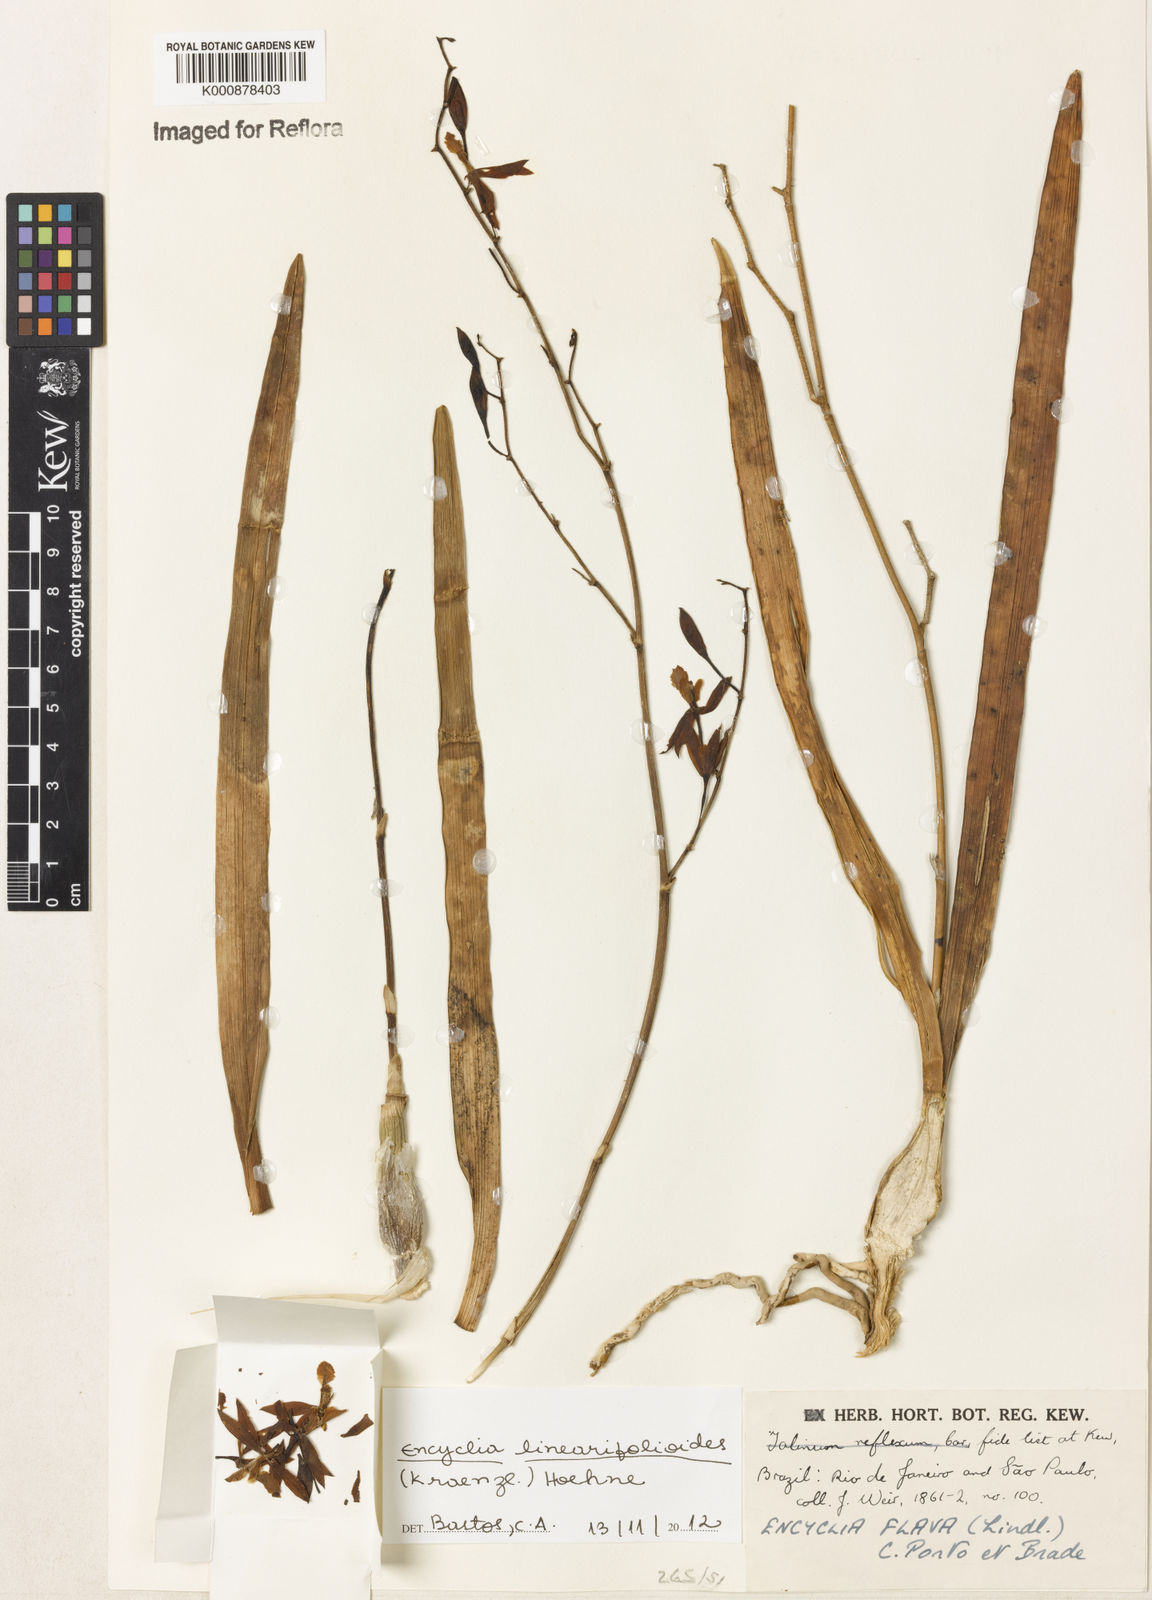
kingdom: Plantae
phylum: Tracheophyta
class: Liliopsida
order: Asparagales
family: Orchidaceae
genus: Encyclia
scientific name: Encyclia linearifolioides
